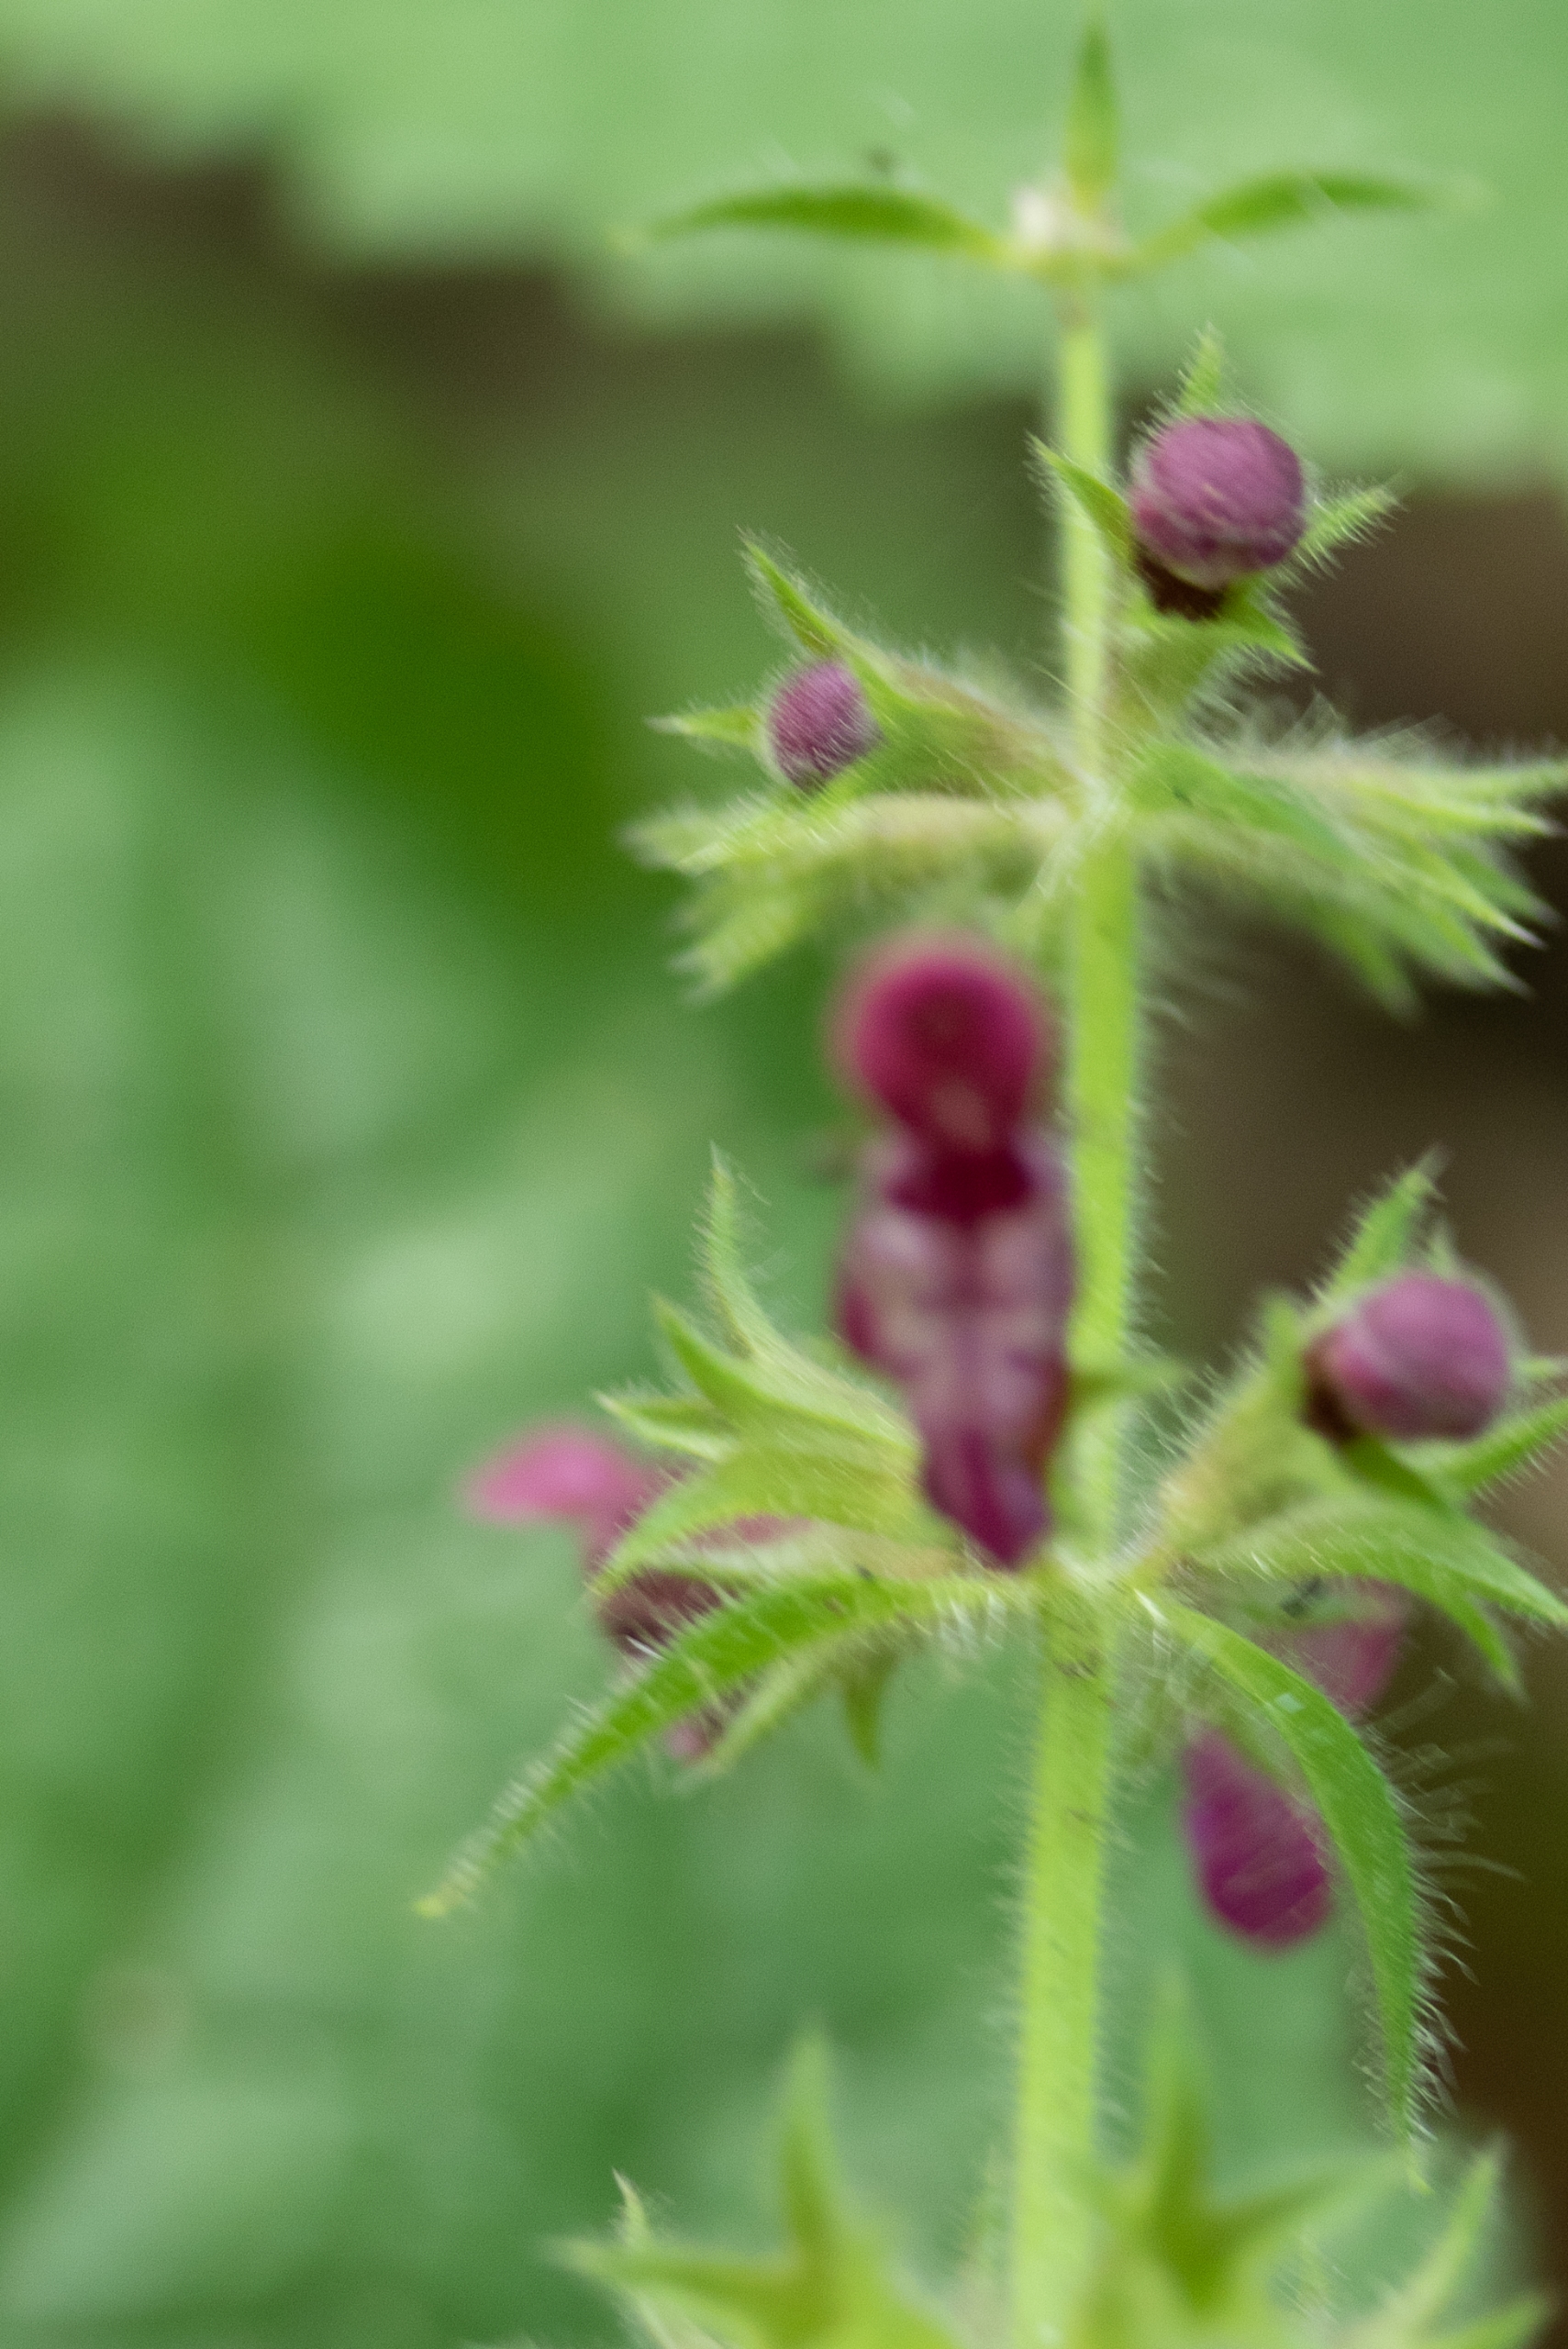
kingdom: Plantae
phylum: Tracheophyta
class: Magnoliopsida
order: Lamiales
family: Lamiaceae
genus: Stachys
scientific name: Stachys sylvatica
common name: Skov-galtetand
